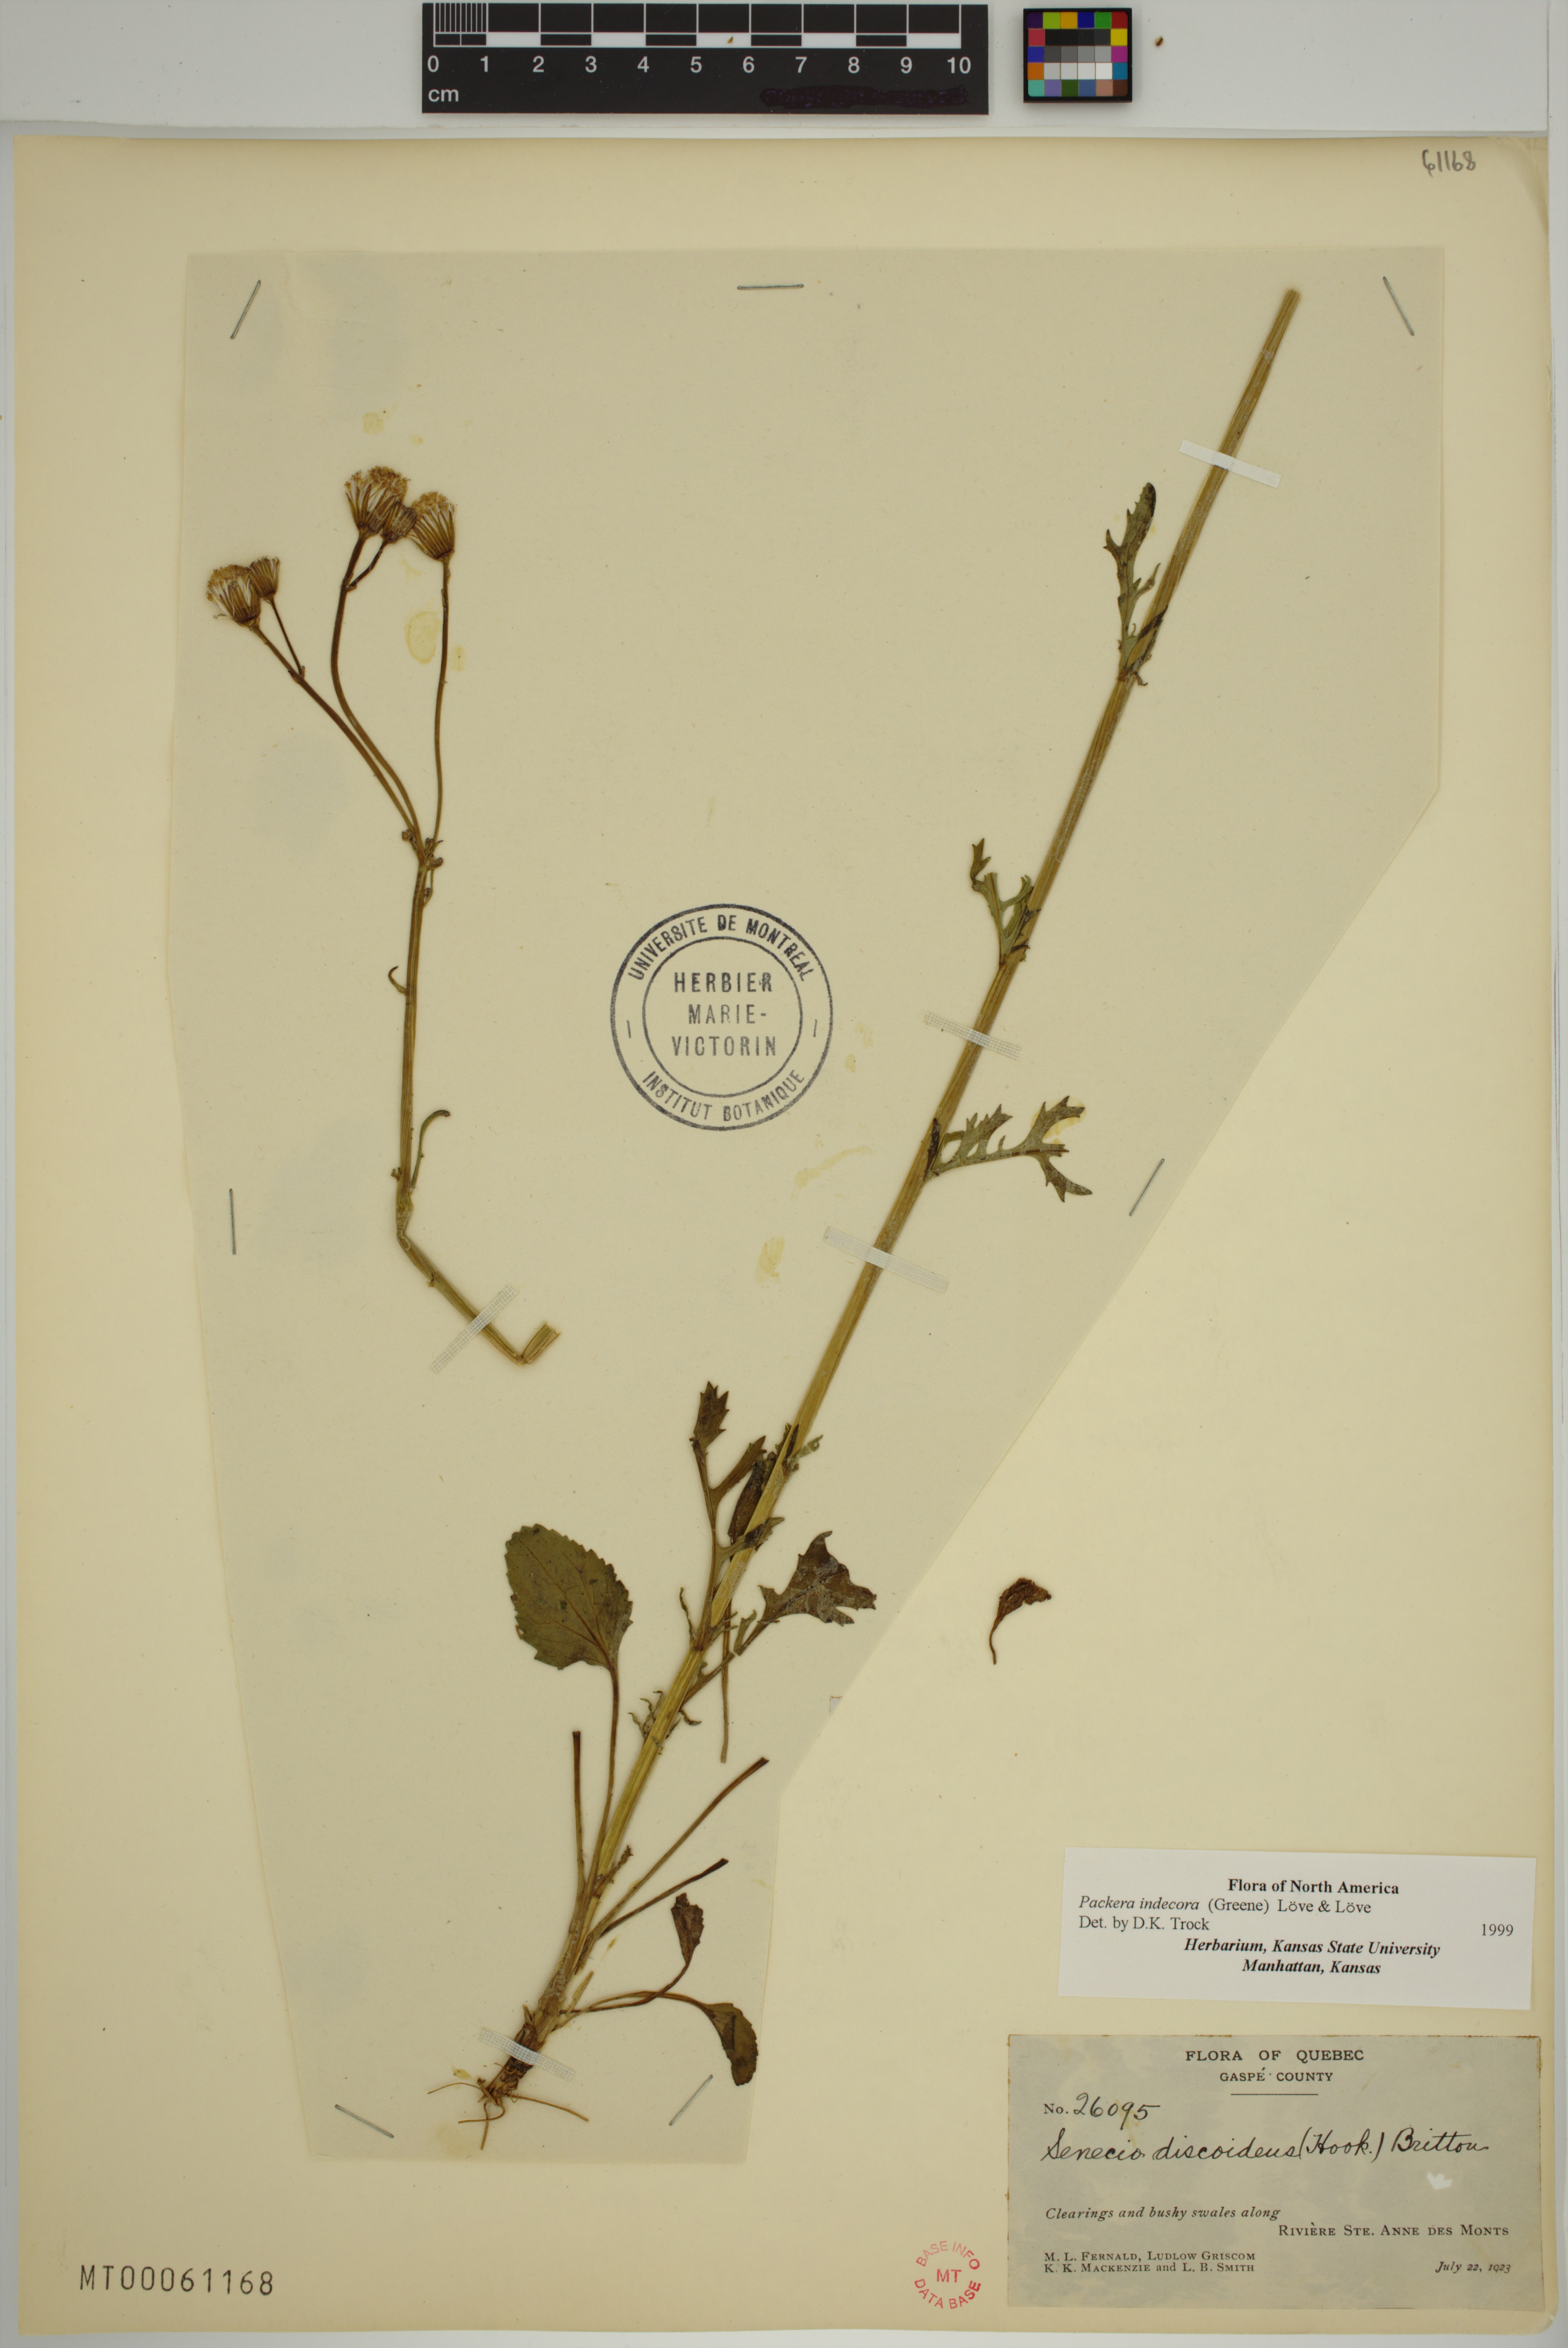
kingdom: Plantae
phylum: Tracheophyta
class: Magnoliopsida
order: Asterales
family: Asteraceae
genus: Packera
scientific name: Packera indecora
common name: Elegant groundsel
